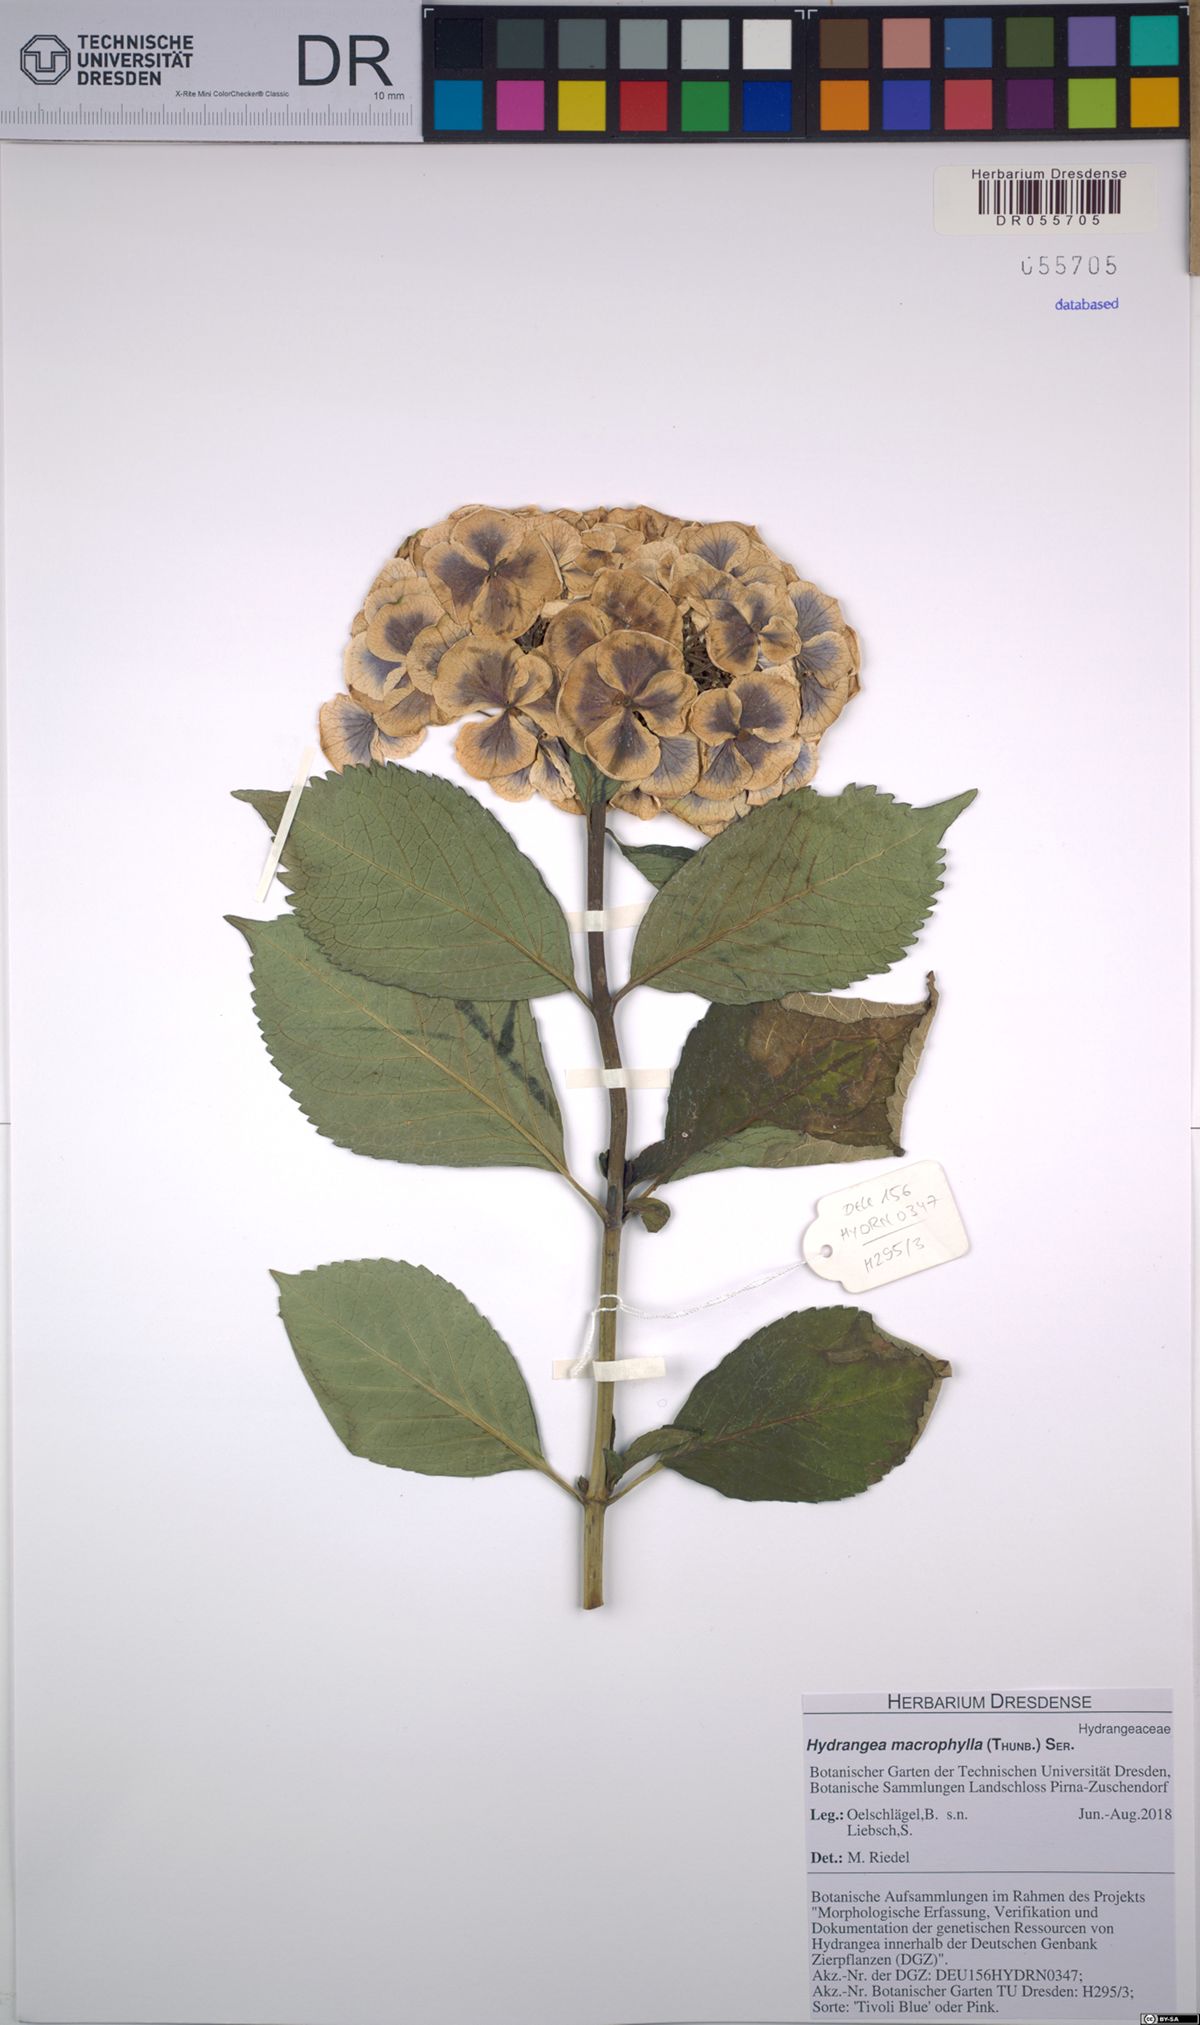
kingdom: Plantae
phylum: Tracheophyta
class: Magnoliopsida
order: Cornales
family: Hydrangeaceae
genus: Hydrangea
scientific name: Hydrangea macrophylla
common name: Hydrangea
